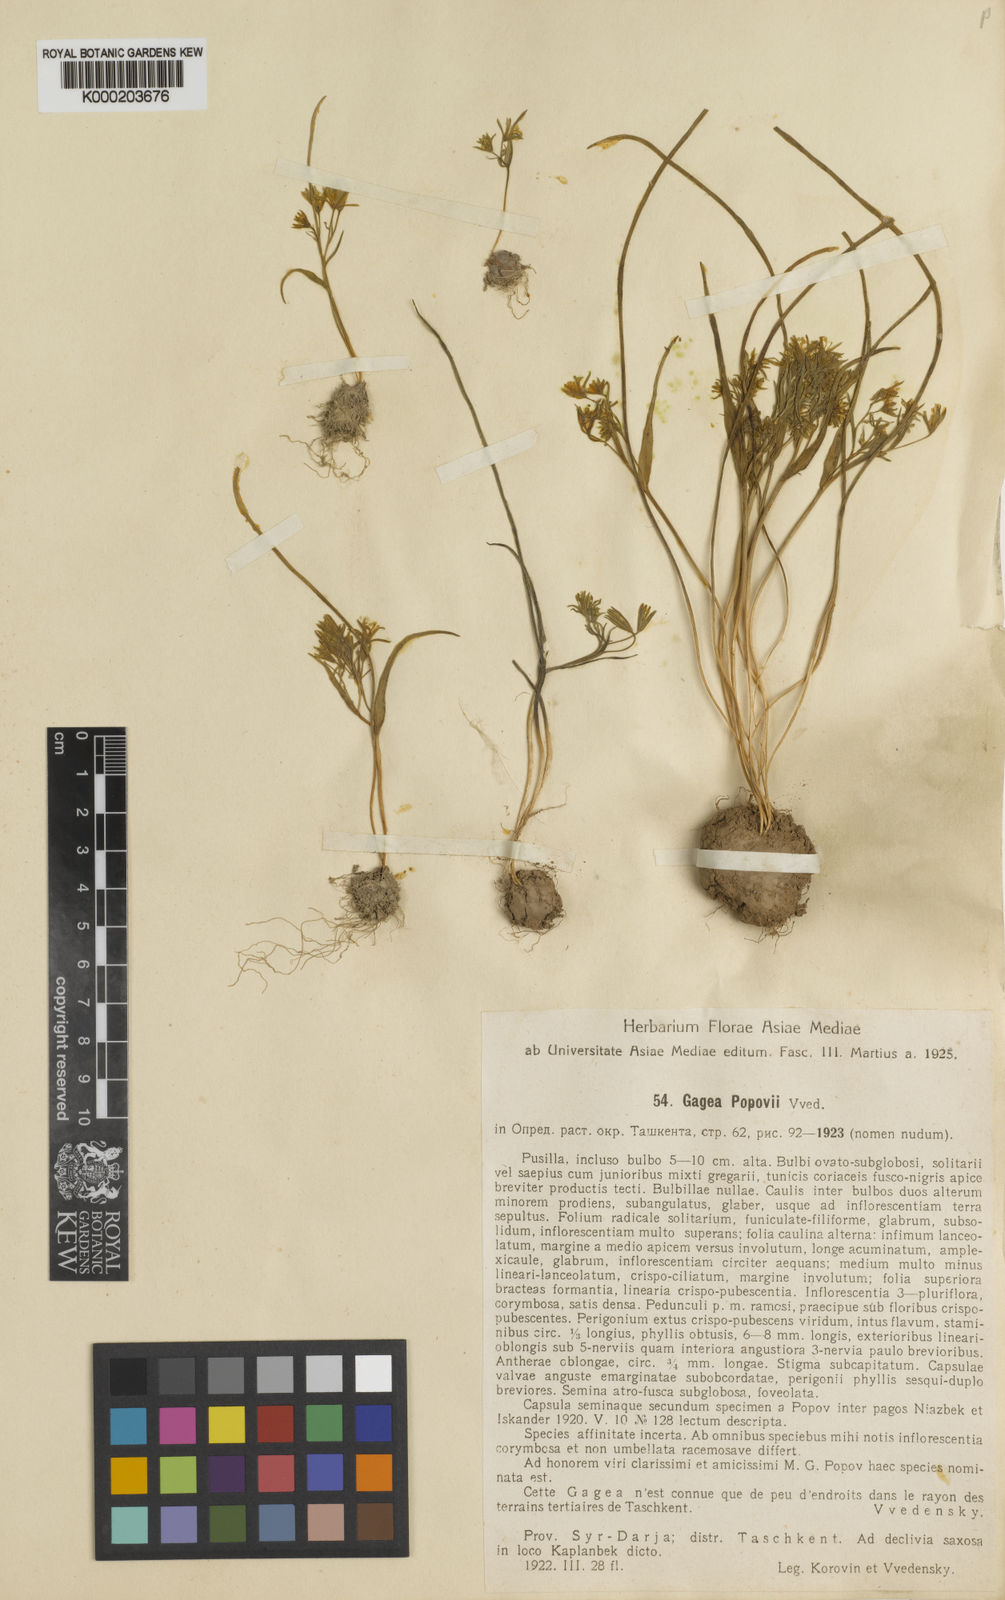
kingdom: Plantae
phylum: Tracheophyta
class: Liliopsida
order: Liliales
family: Liliaceae
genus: Gagea
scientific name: Gagea popovii
